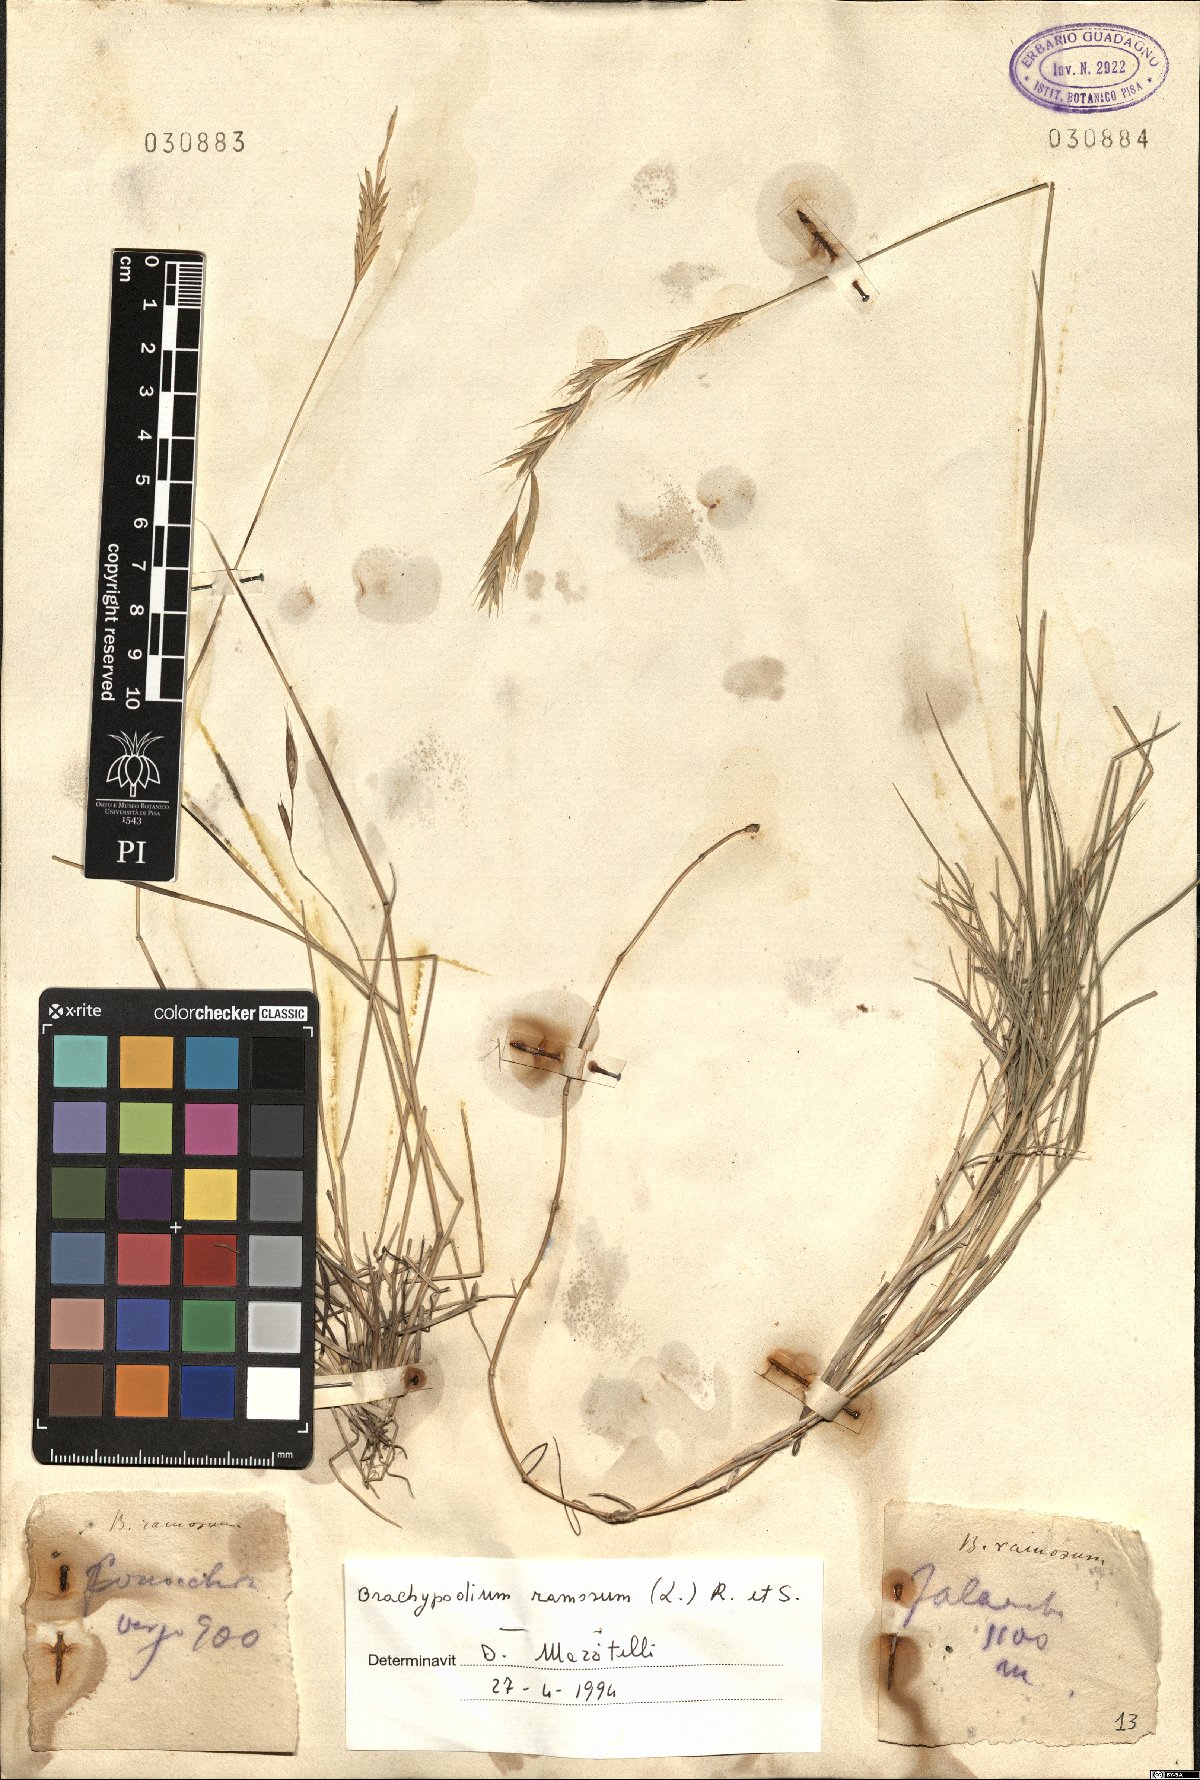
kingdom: Plantae
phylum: Tracheophyta
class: Liliopsida
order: Poales
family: Poaceae
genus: Brachypodium
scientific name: Brachypodium retusum
